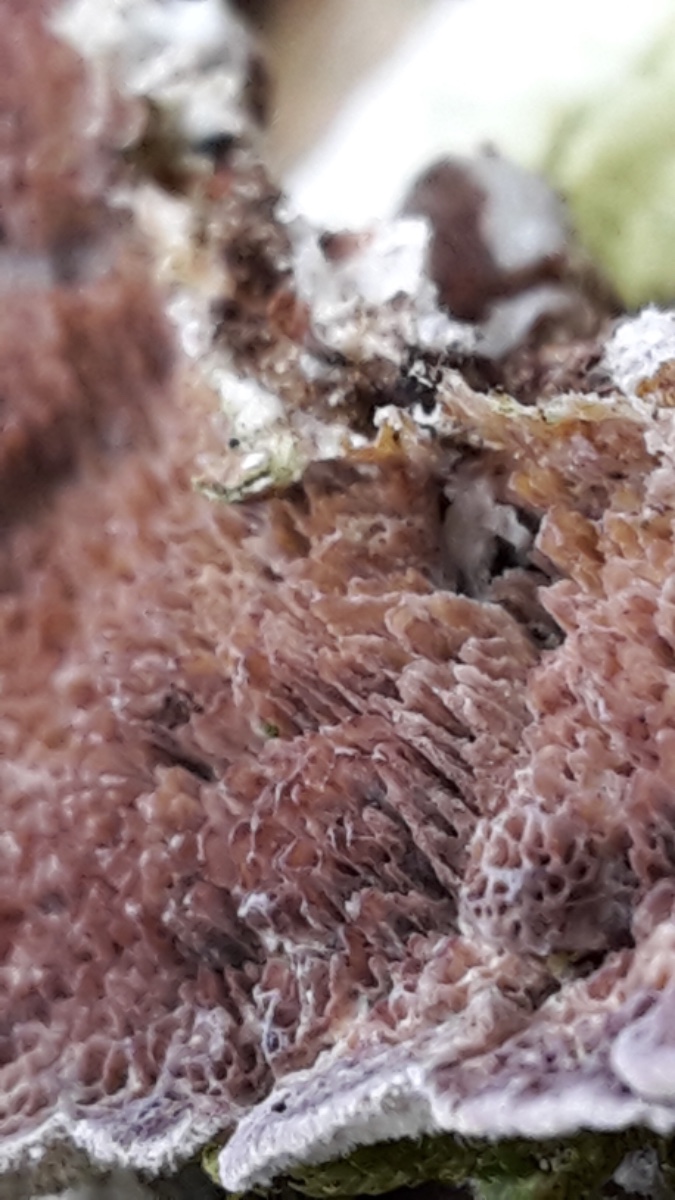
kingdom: Fungi
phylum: Basidiomycota
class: Agaricomycetes
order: Hymenochaetales
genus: Trichaptum
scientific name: Trichaptum fuscoviolaceum
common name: tandet violporesvamp
